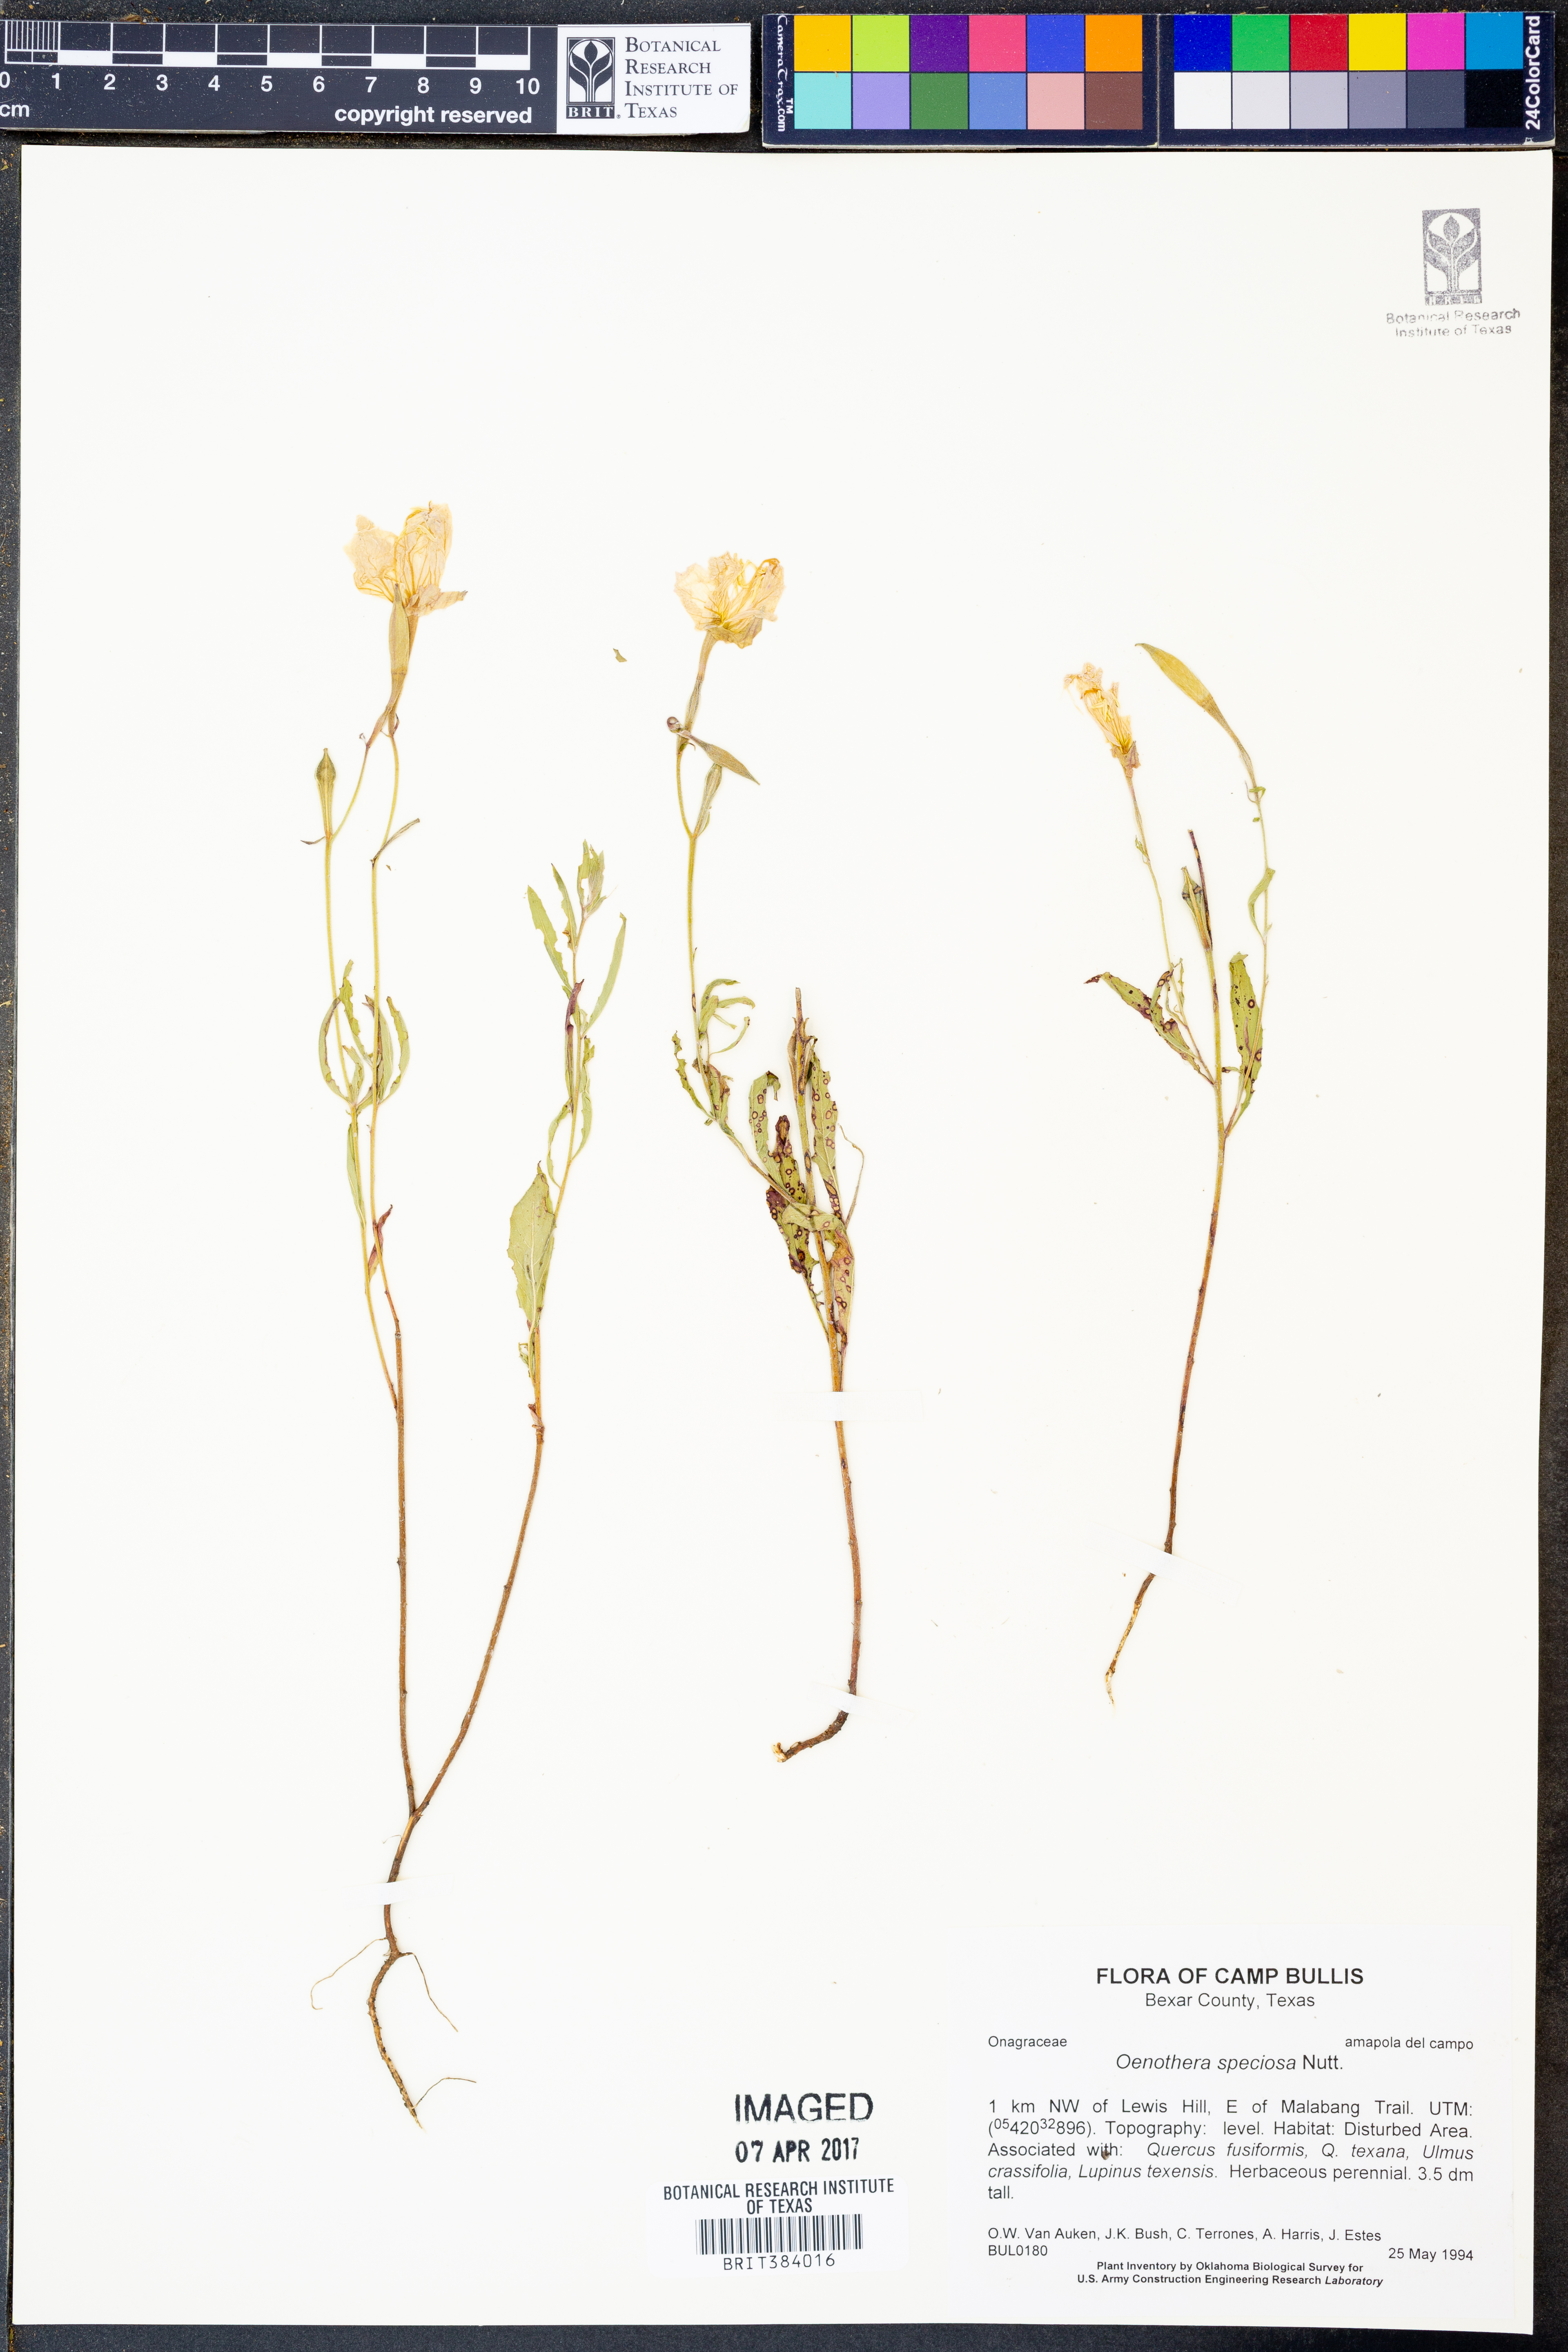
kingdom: Plantae
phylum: Tracheophyta
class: Magnoliopsida
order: Myrtales
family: Onagraceae
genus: Oenothera
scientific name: Oenothera speciosa
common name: White evening-primrose
